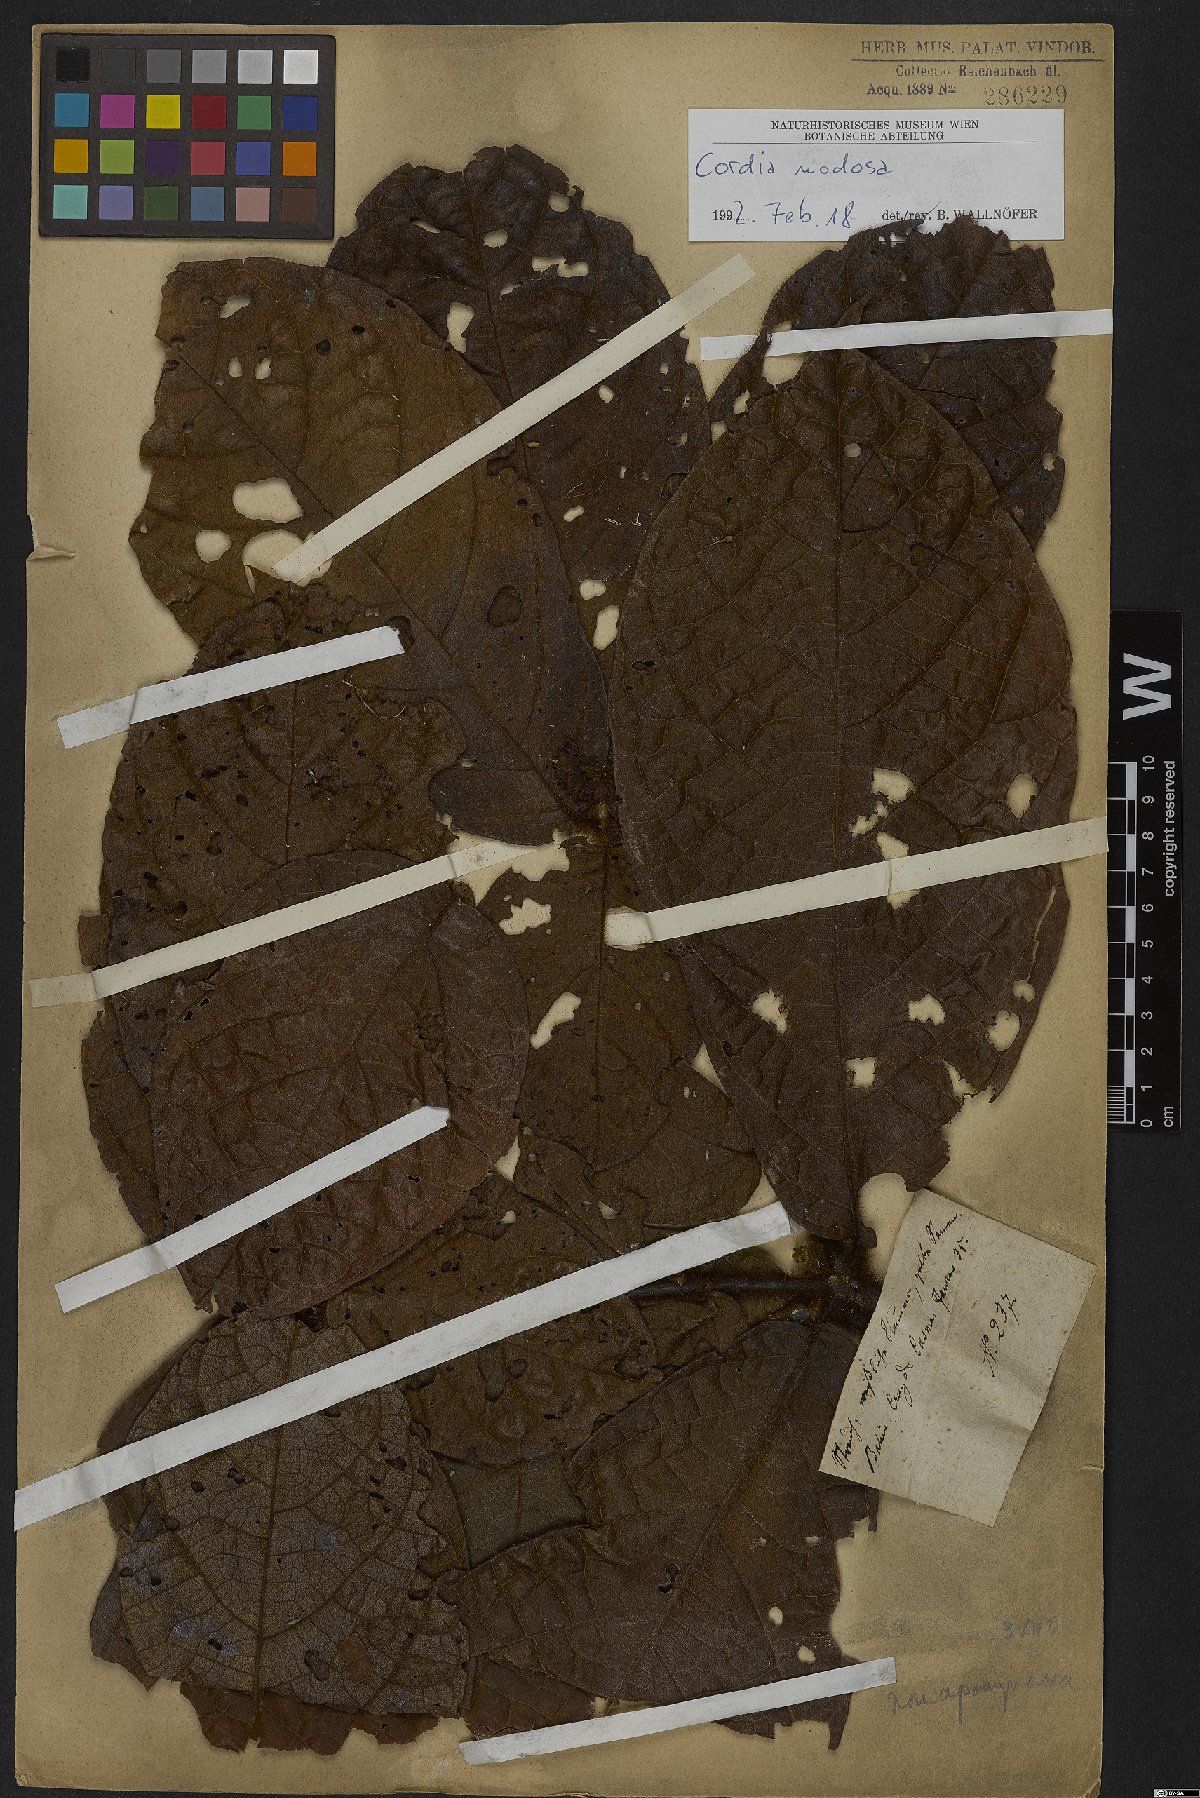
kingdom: Plantae
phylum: Tracheophyta
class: Magnoliopsida
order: Boraginales
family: Cordiaceae
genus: Cordia
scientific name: Cordia nodosa
